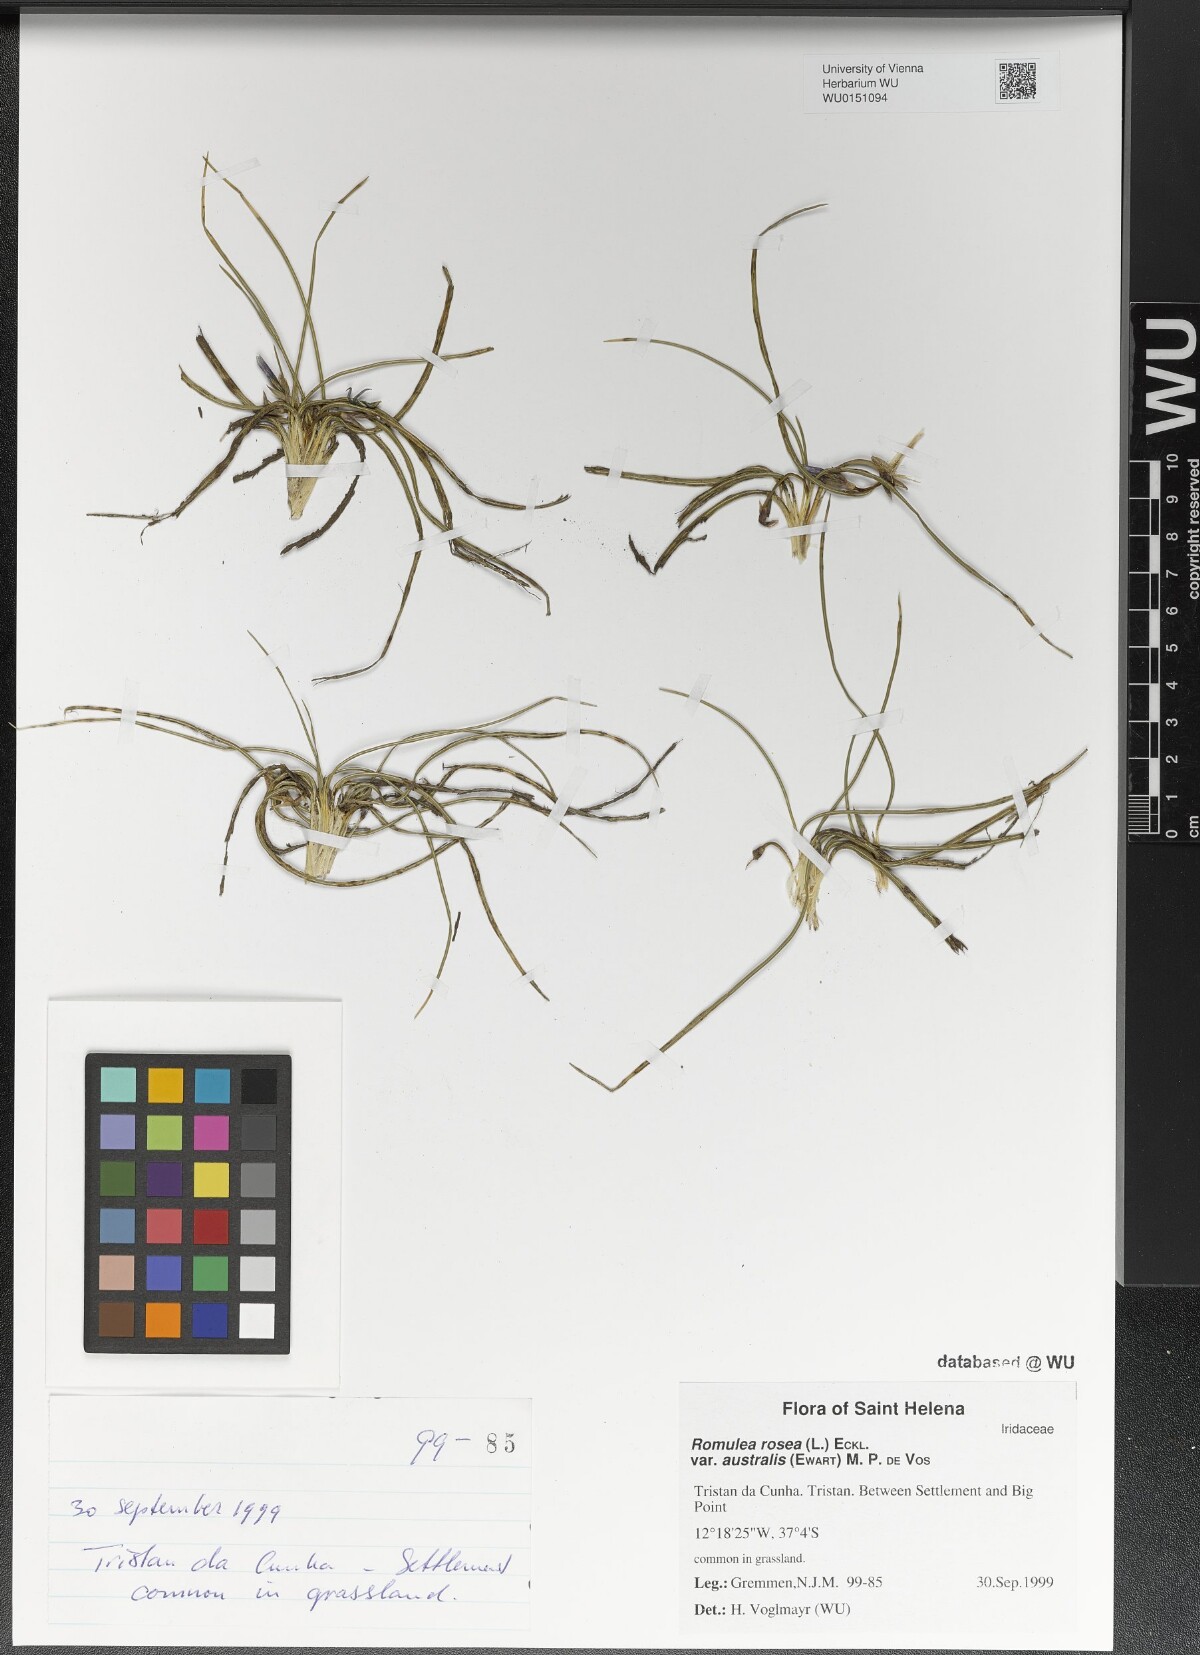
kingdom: Plantae
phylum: Tracheophyta
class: Liliopsida
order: Asparagales
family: Iridaceae
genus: Romulea
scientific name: Romulea rosea
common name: Oniongrass
